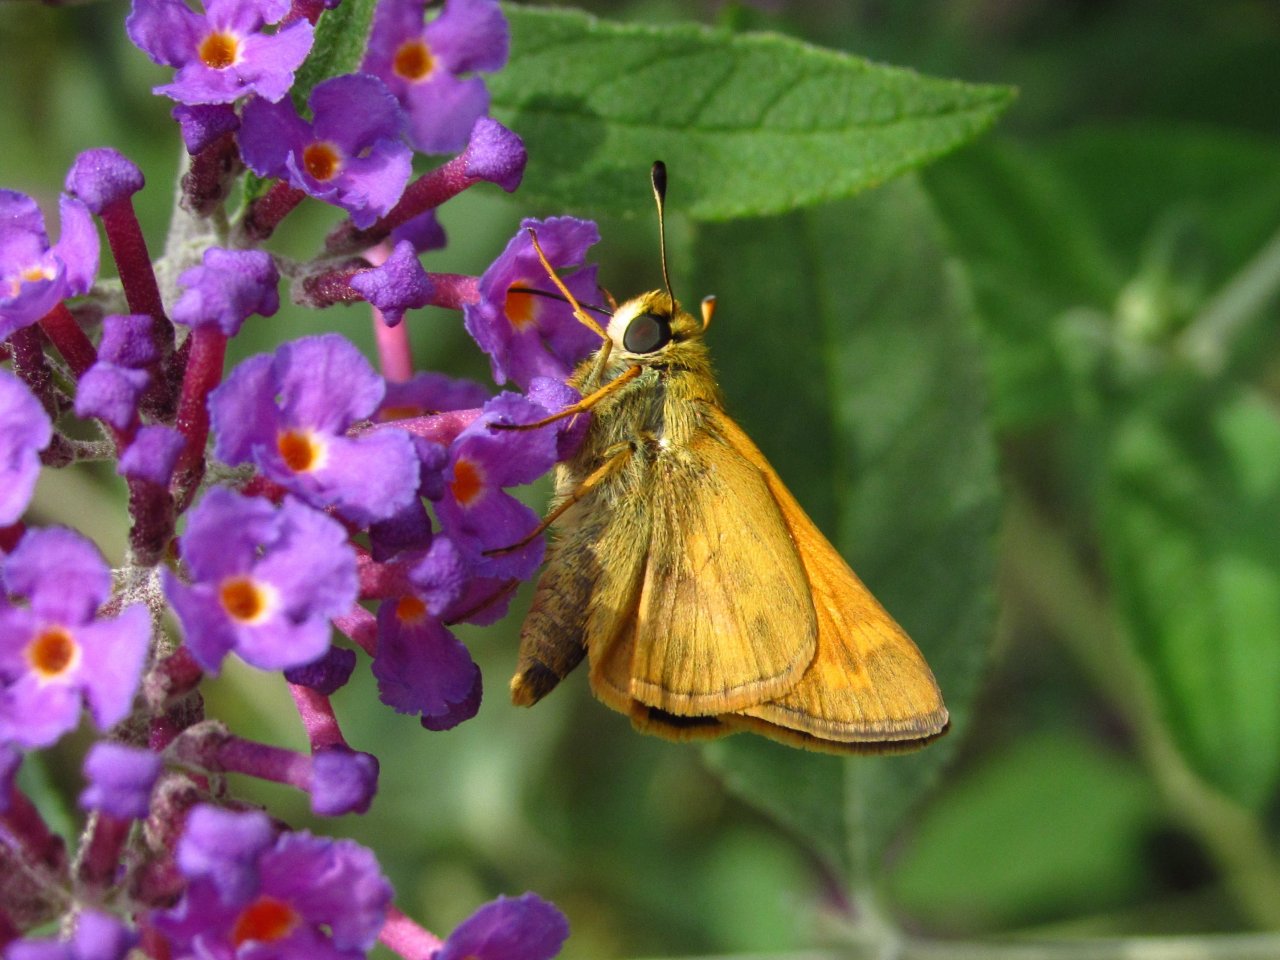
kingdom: Animalia
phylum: Arthropoda
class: Insecta
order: Lepidoptera
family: Hesperiidae
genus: Atalopedes
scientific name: Atalopedes campestris
